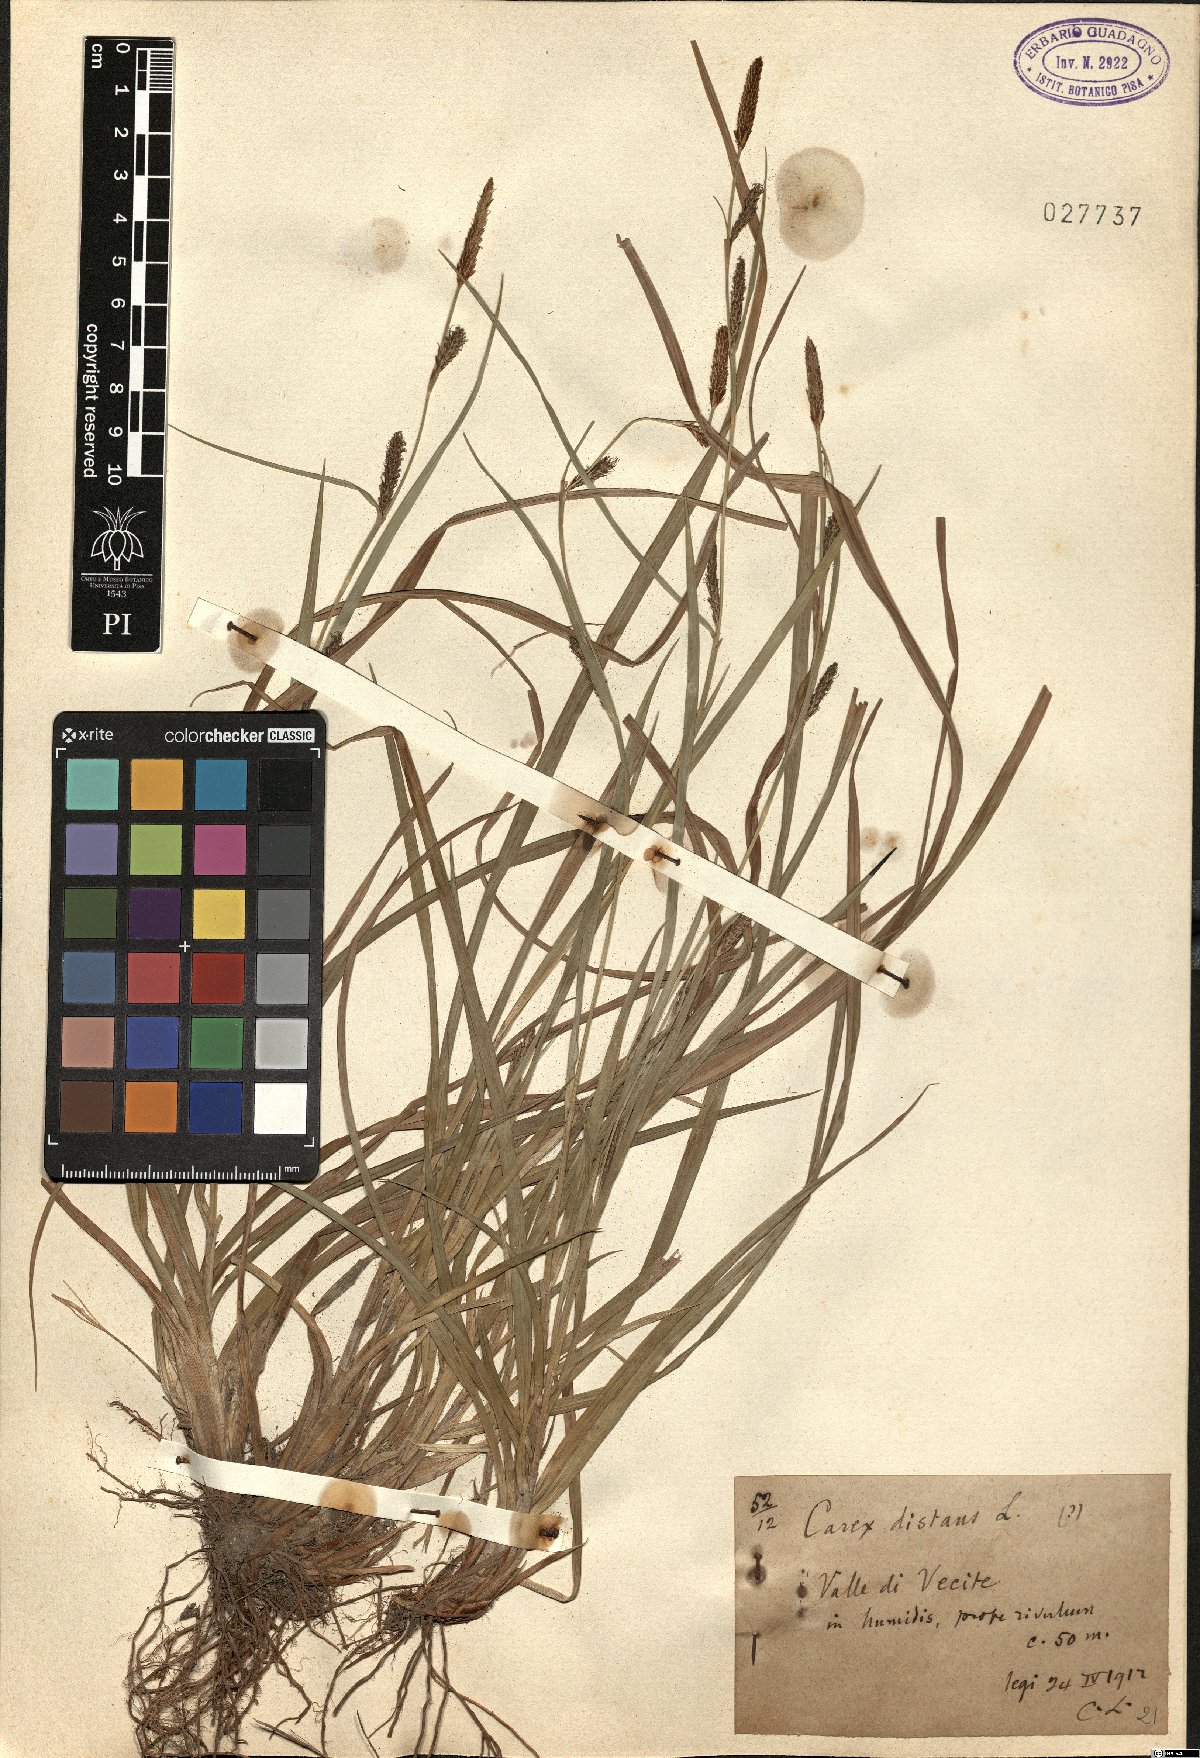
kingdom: Plantae
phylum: Tracheophyta
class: Liliopsida
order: Poales
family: Cyperaceae
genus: Carex
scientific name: Carex distans
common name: Distant sedge
